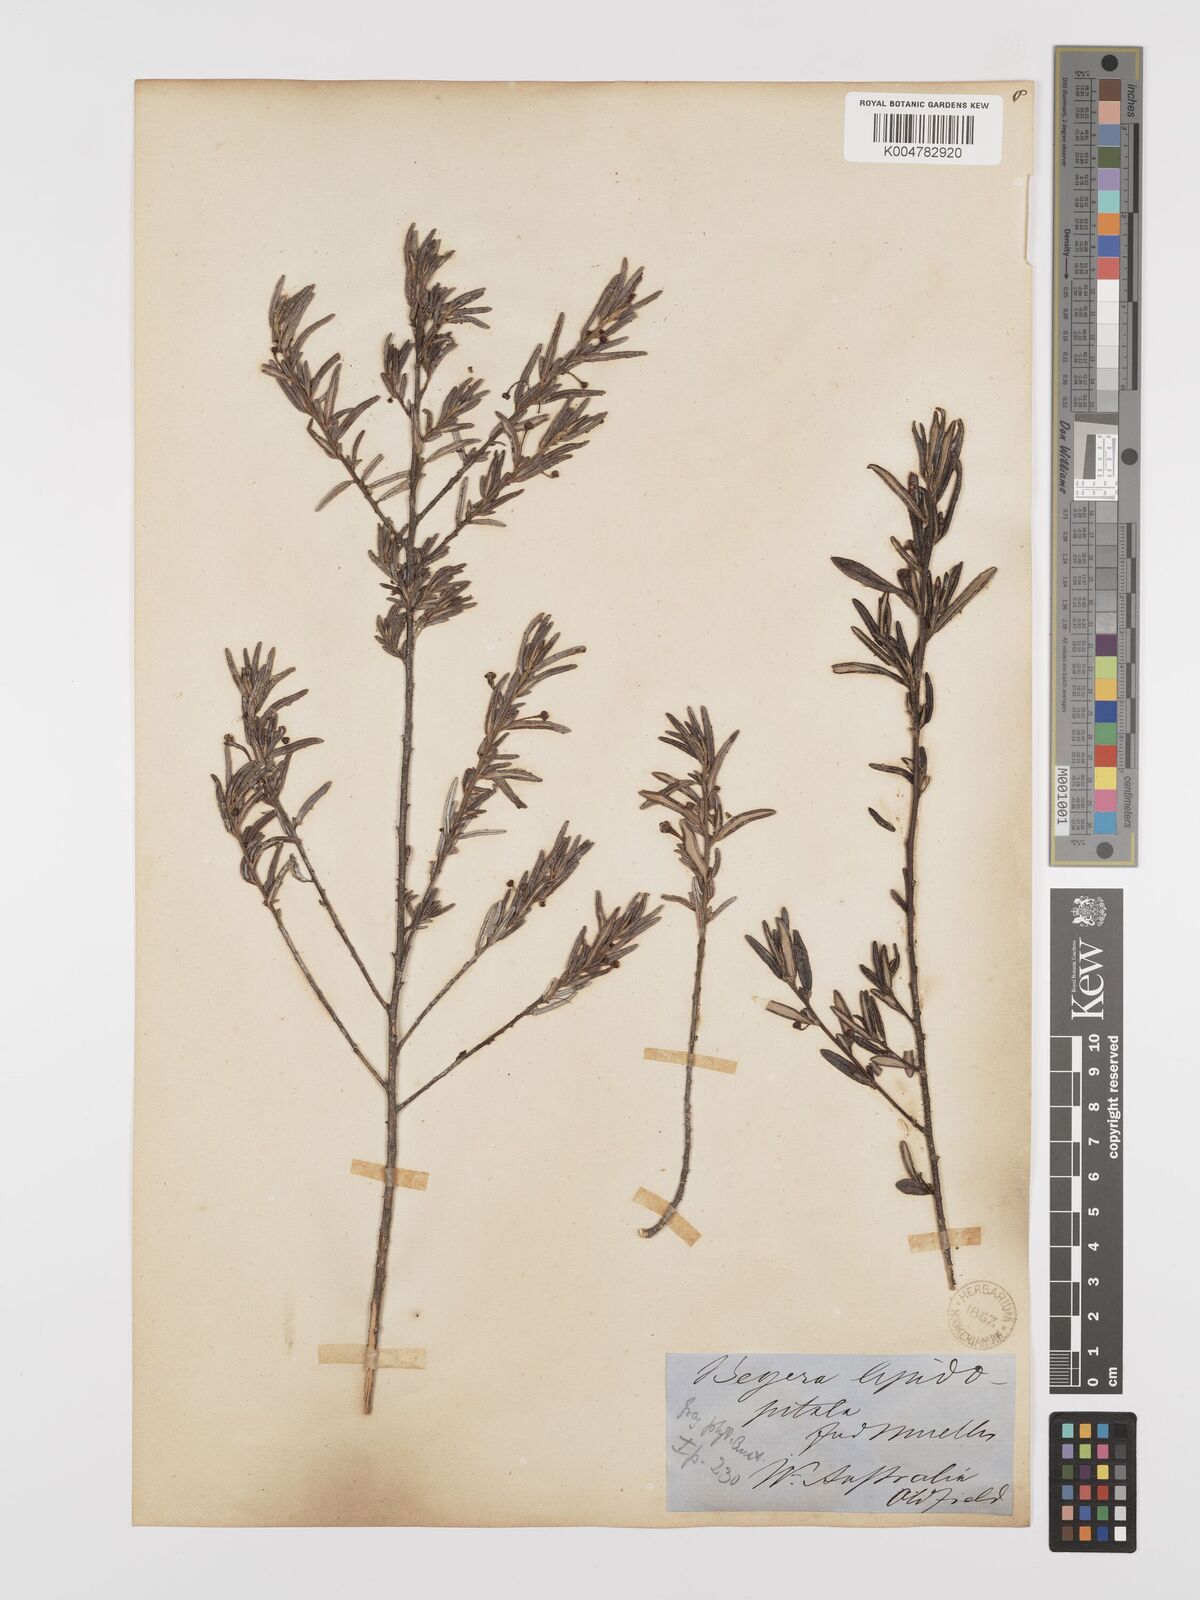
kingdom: Plantae
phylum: Tracheophyta
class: Magnoliopsida
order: Malpighiales
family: Euphorbiaceae
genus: Beyeria
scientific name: Beyeria lepidopetala
